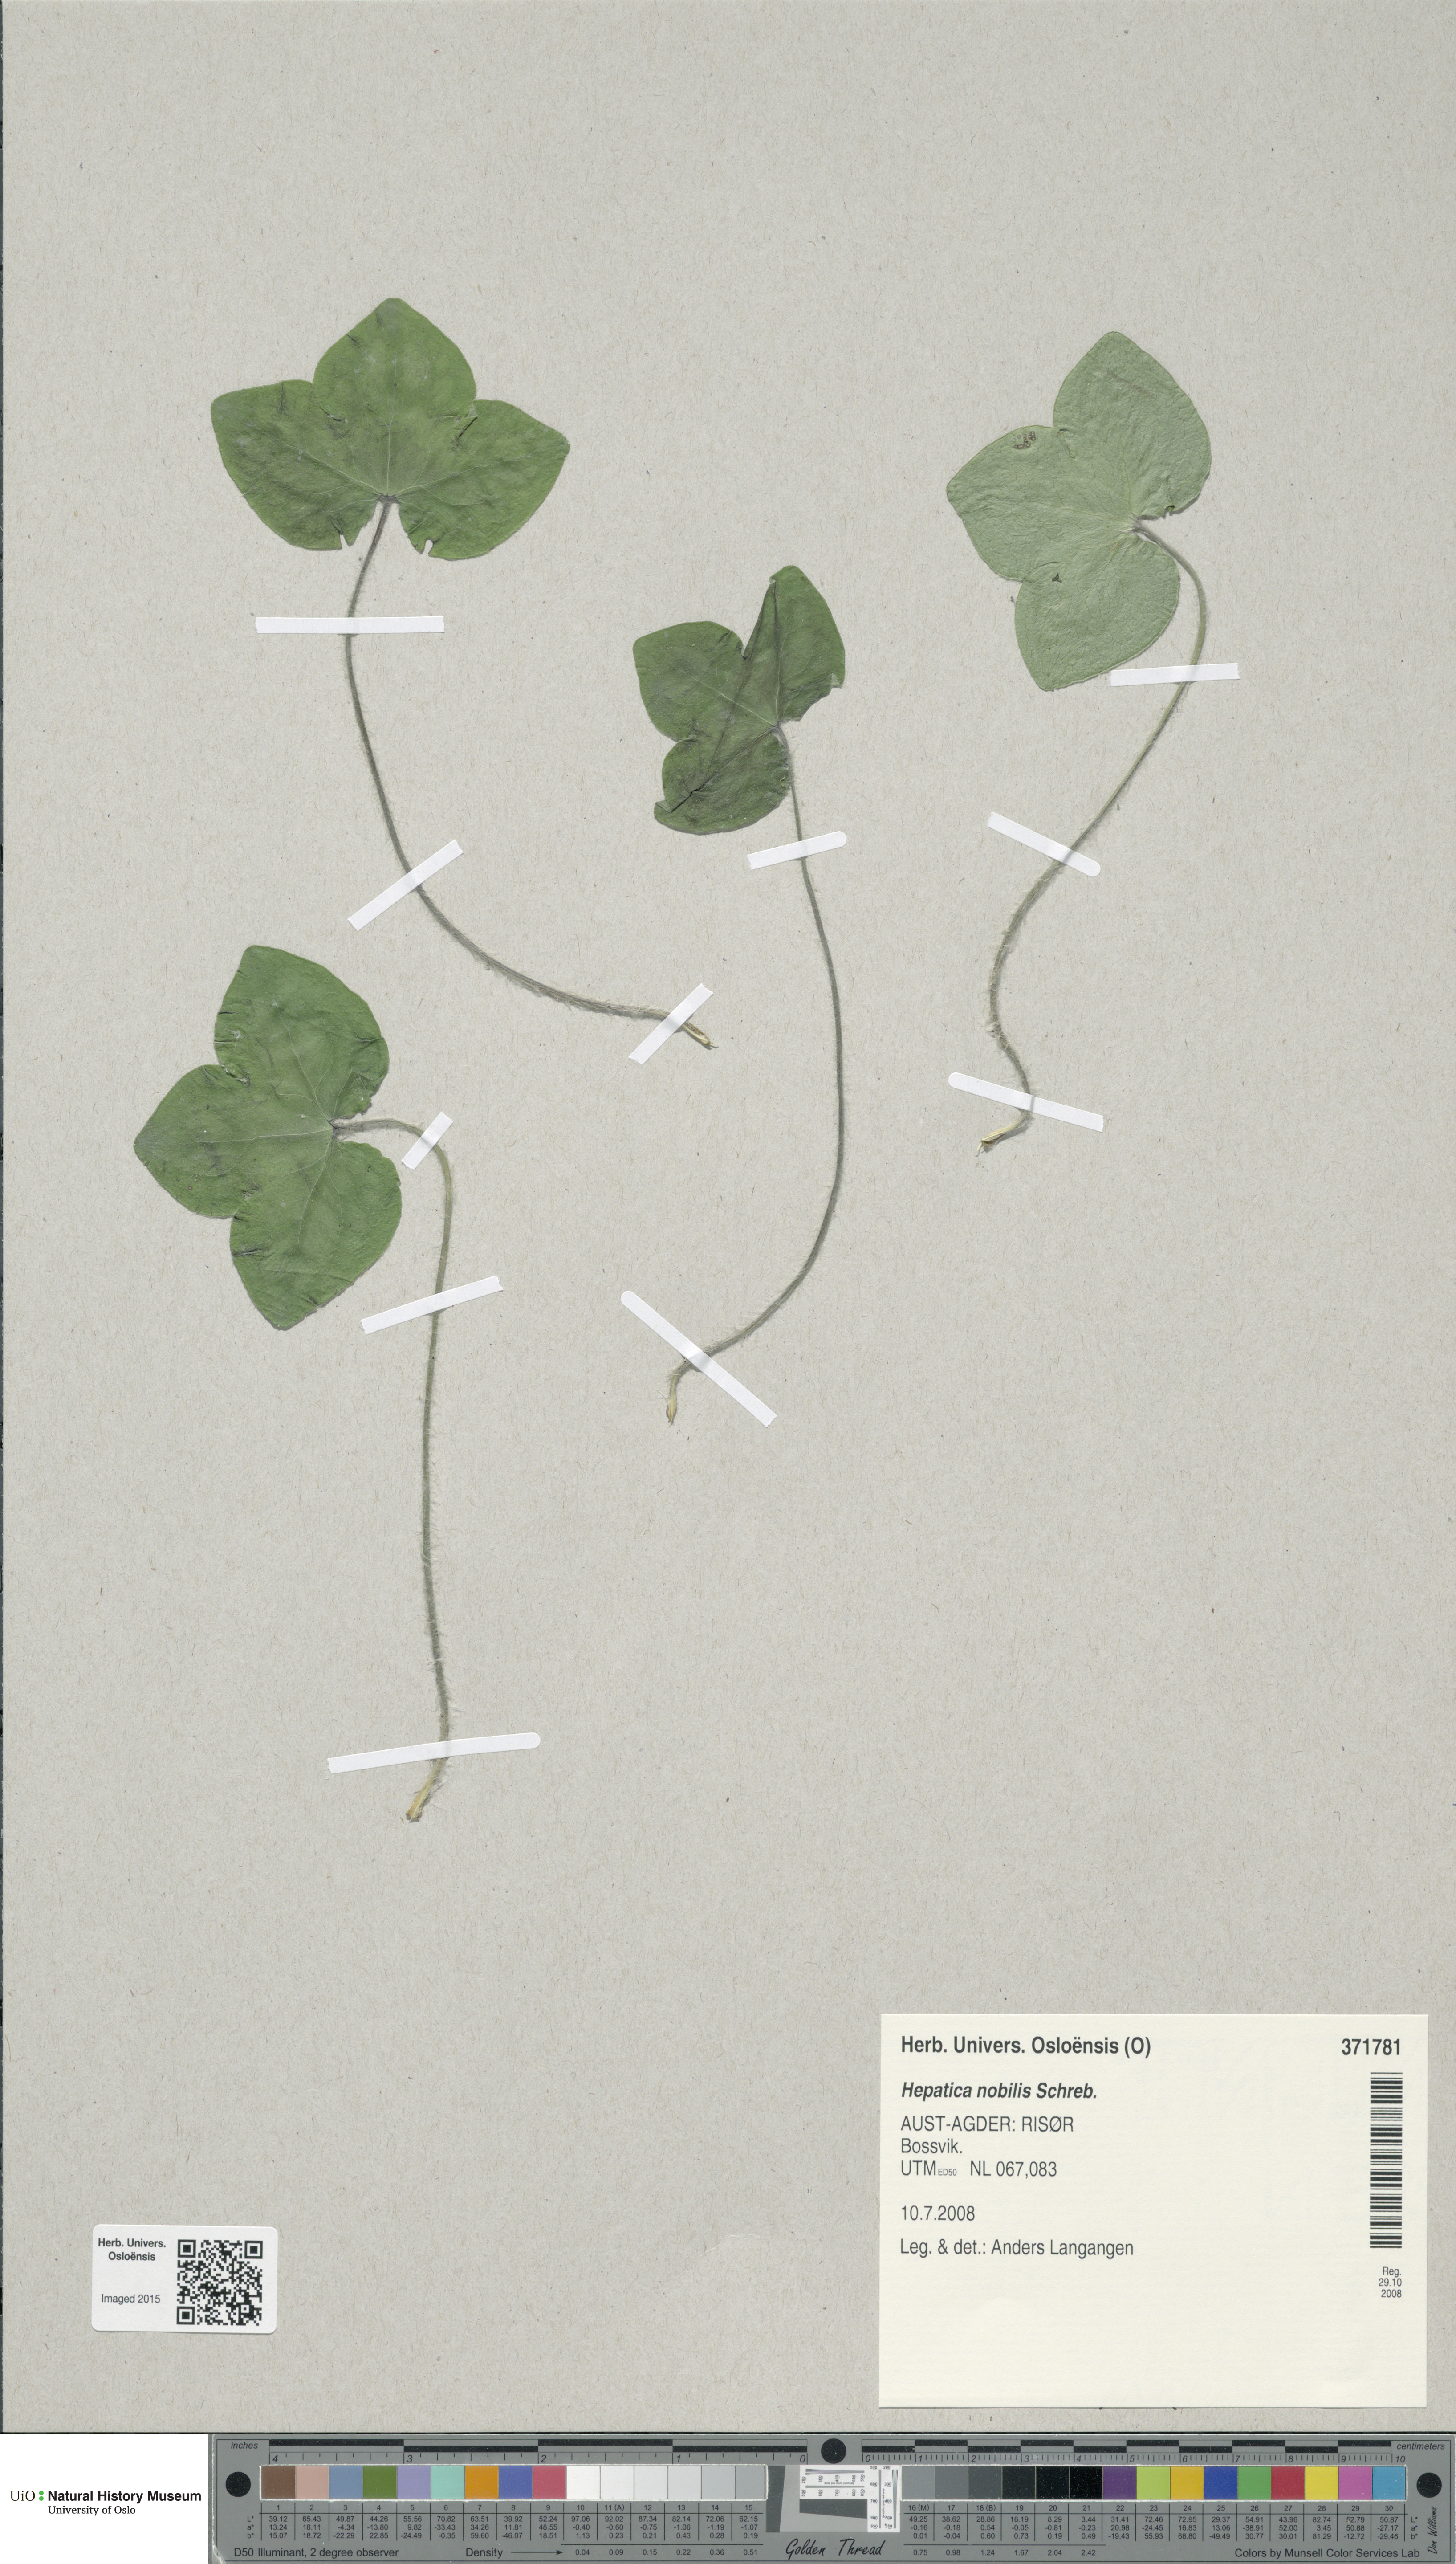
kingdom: Plantae
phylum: Tracheophyta
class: Magnoliopsida
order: Ranunculales
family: Ranunculaceae
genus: Hepatica
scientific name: Hepatica nobilis
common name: Liverleaf
